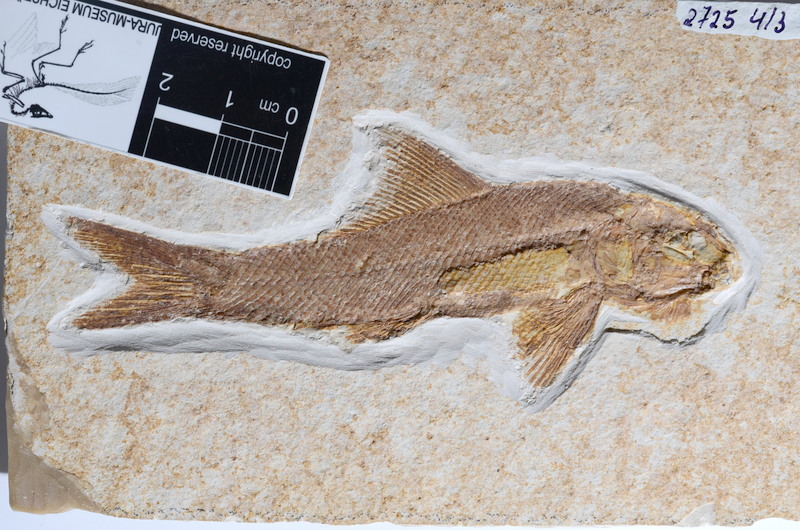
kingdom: Animalia
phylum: Chordata
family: Ophiopsiellidae
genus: Ophiopsiella
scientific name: Ophiopsiella procera
